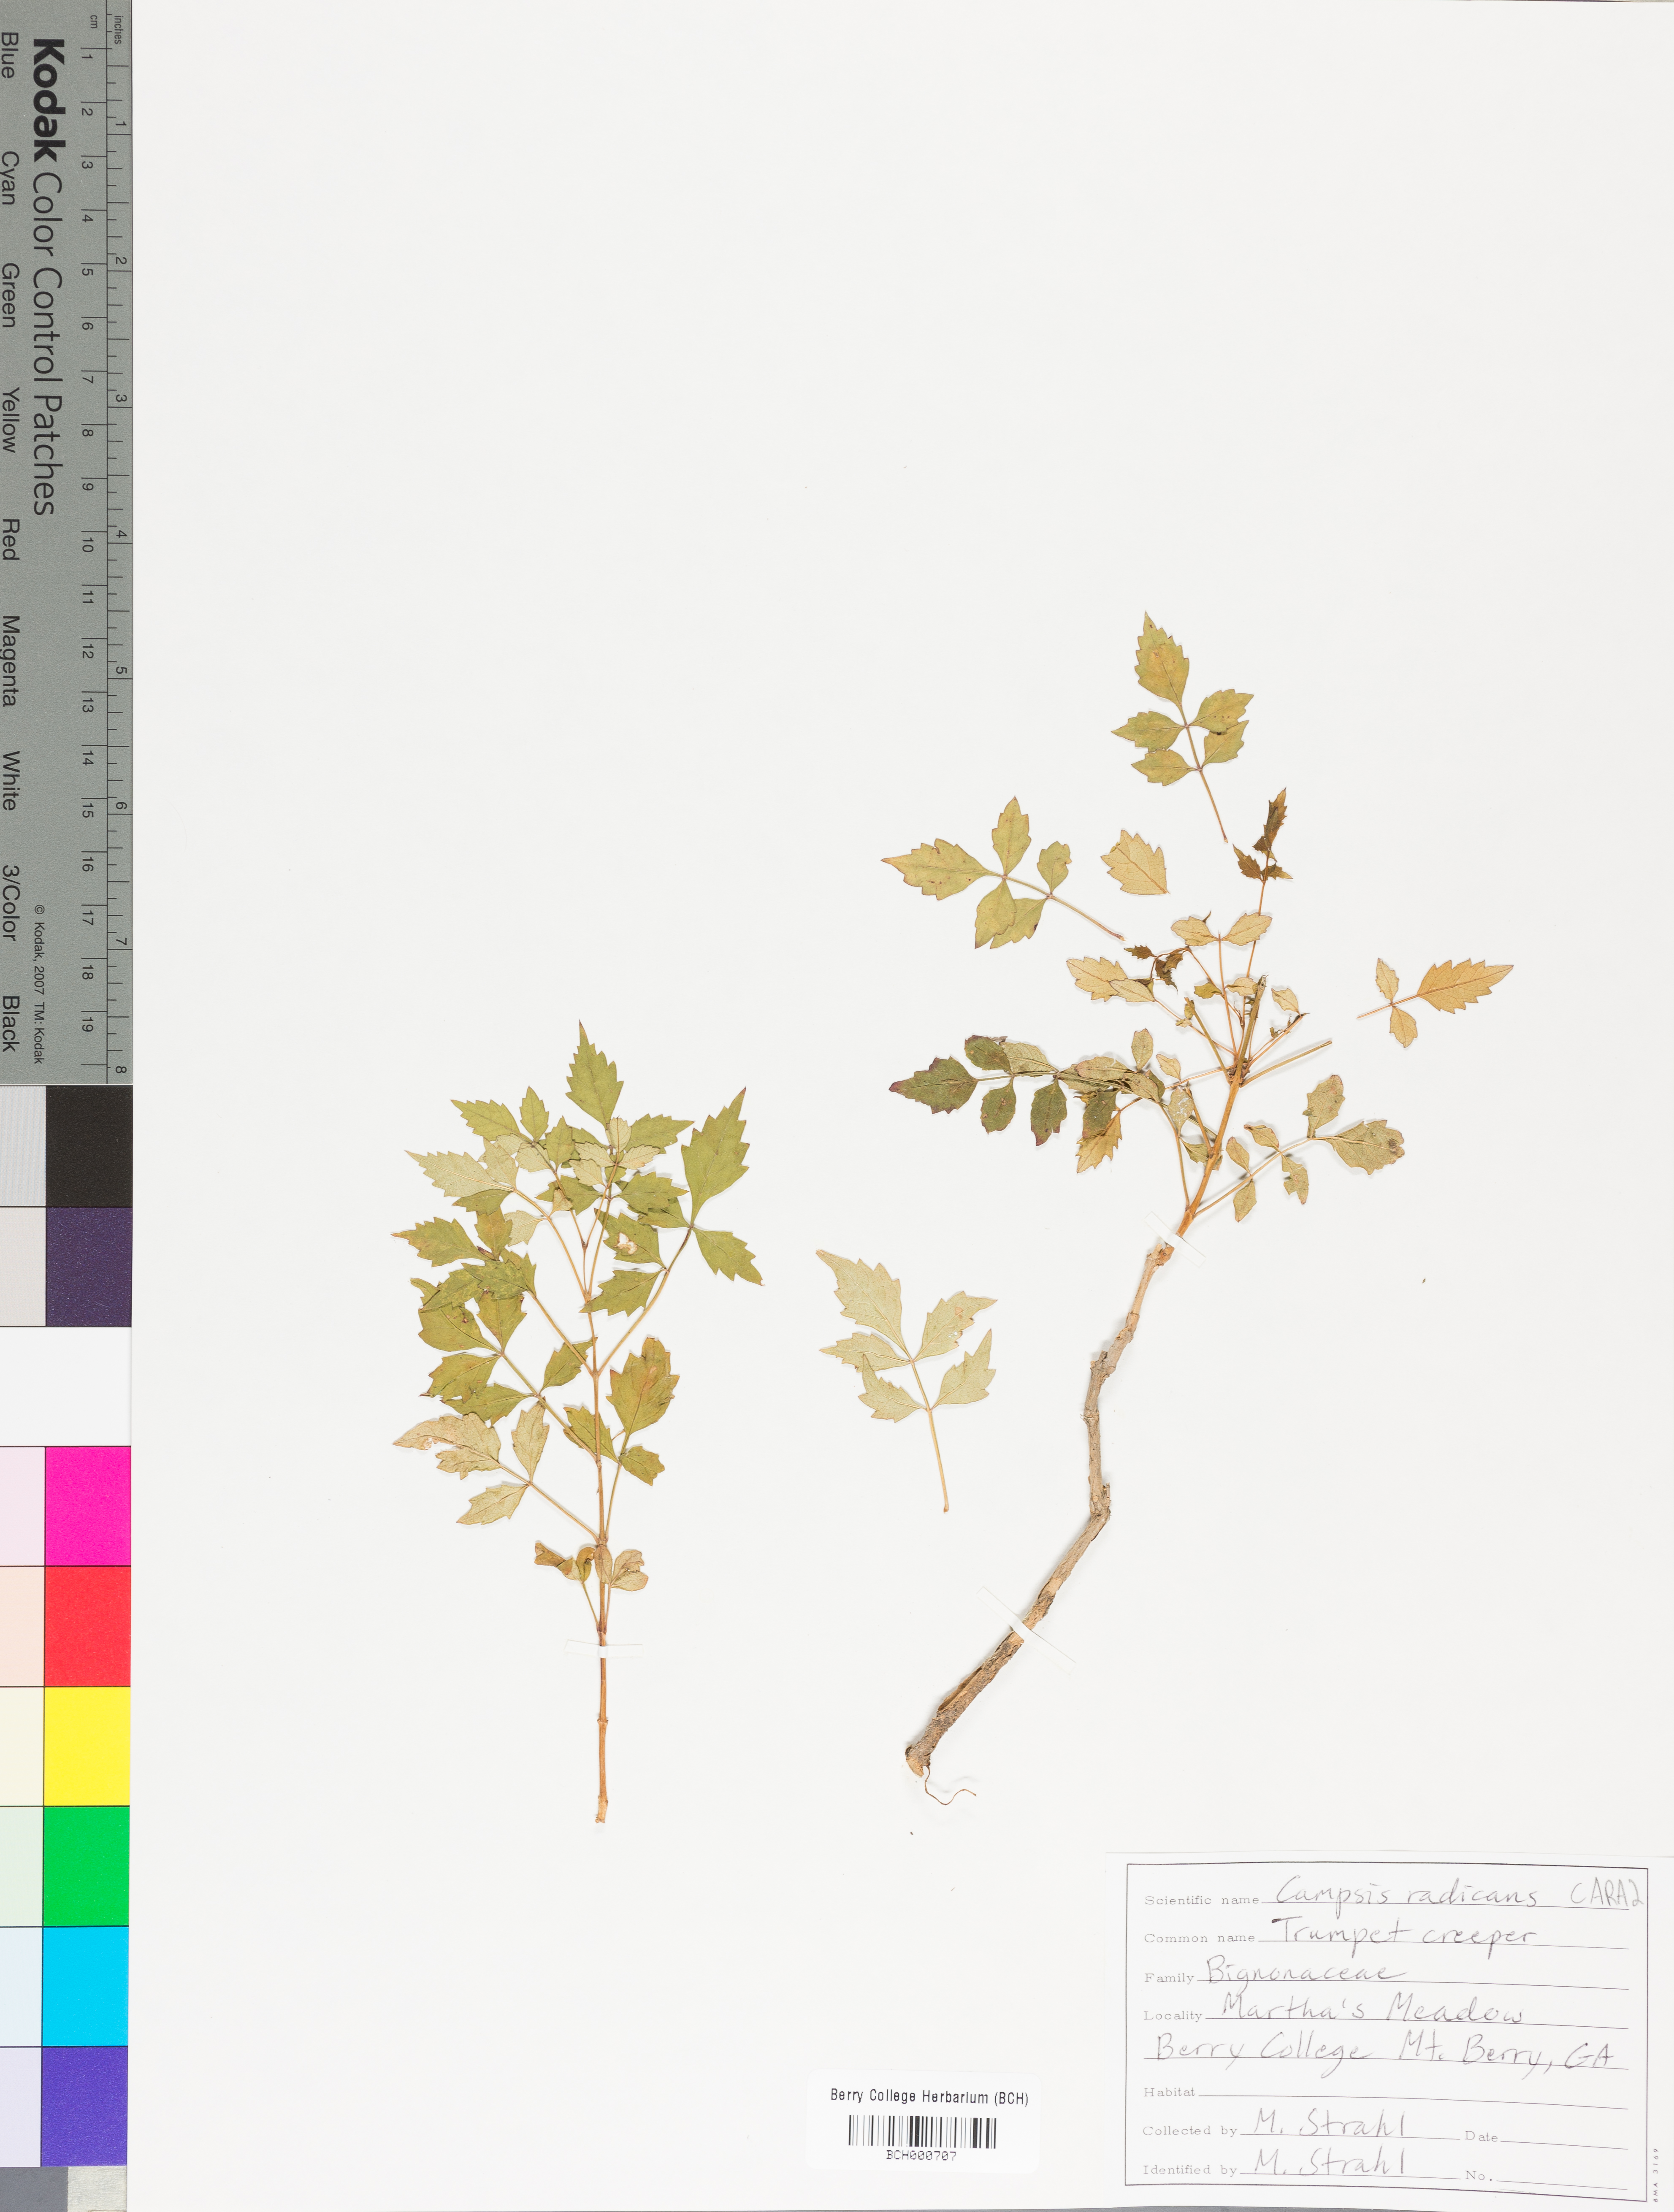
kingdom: Plantae
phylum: Tracheophyta
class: Magnoliopsida
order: Lamiales
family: Bignoniaceae
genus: Campsis
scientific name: Campsis radicans
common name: Trumpet-creeper
